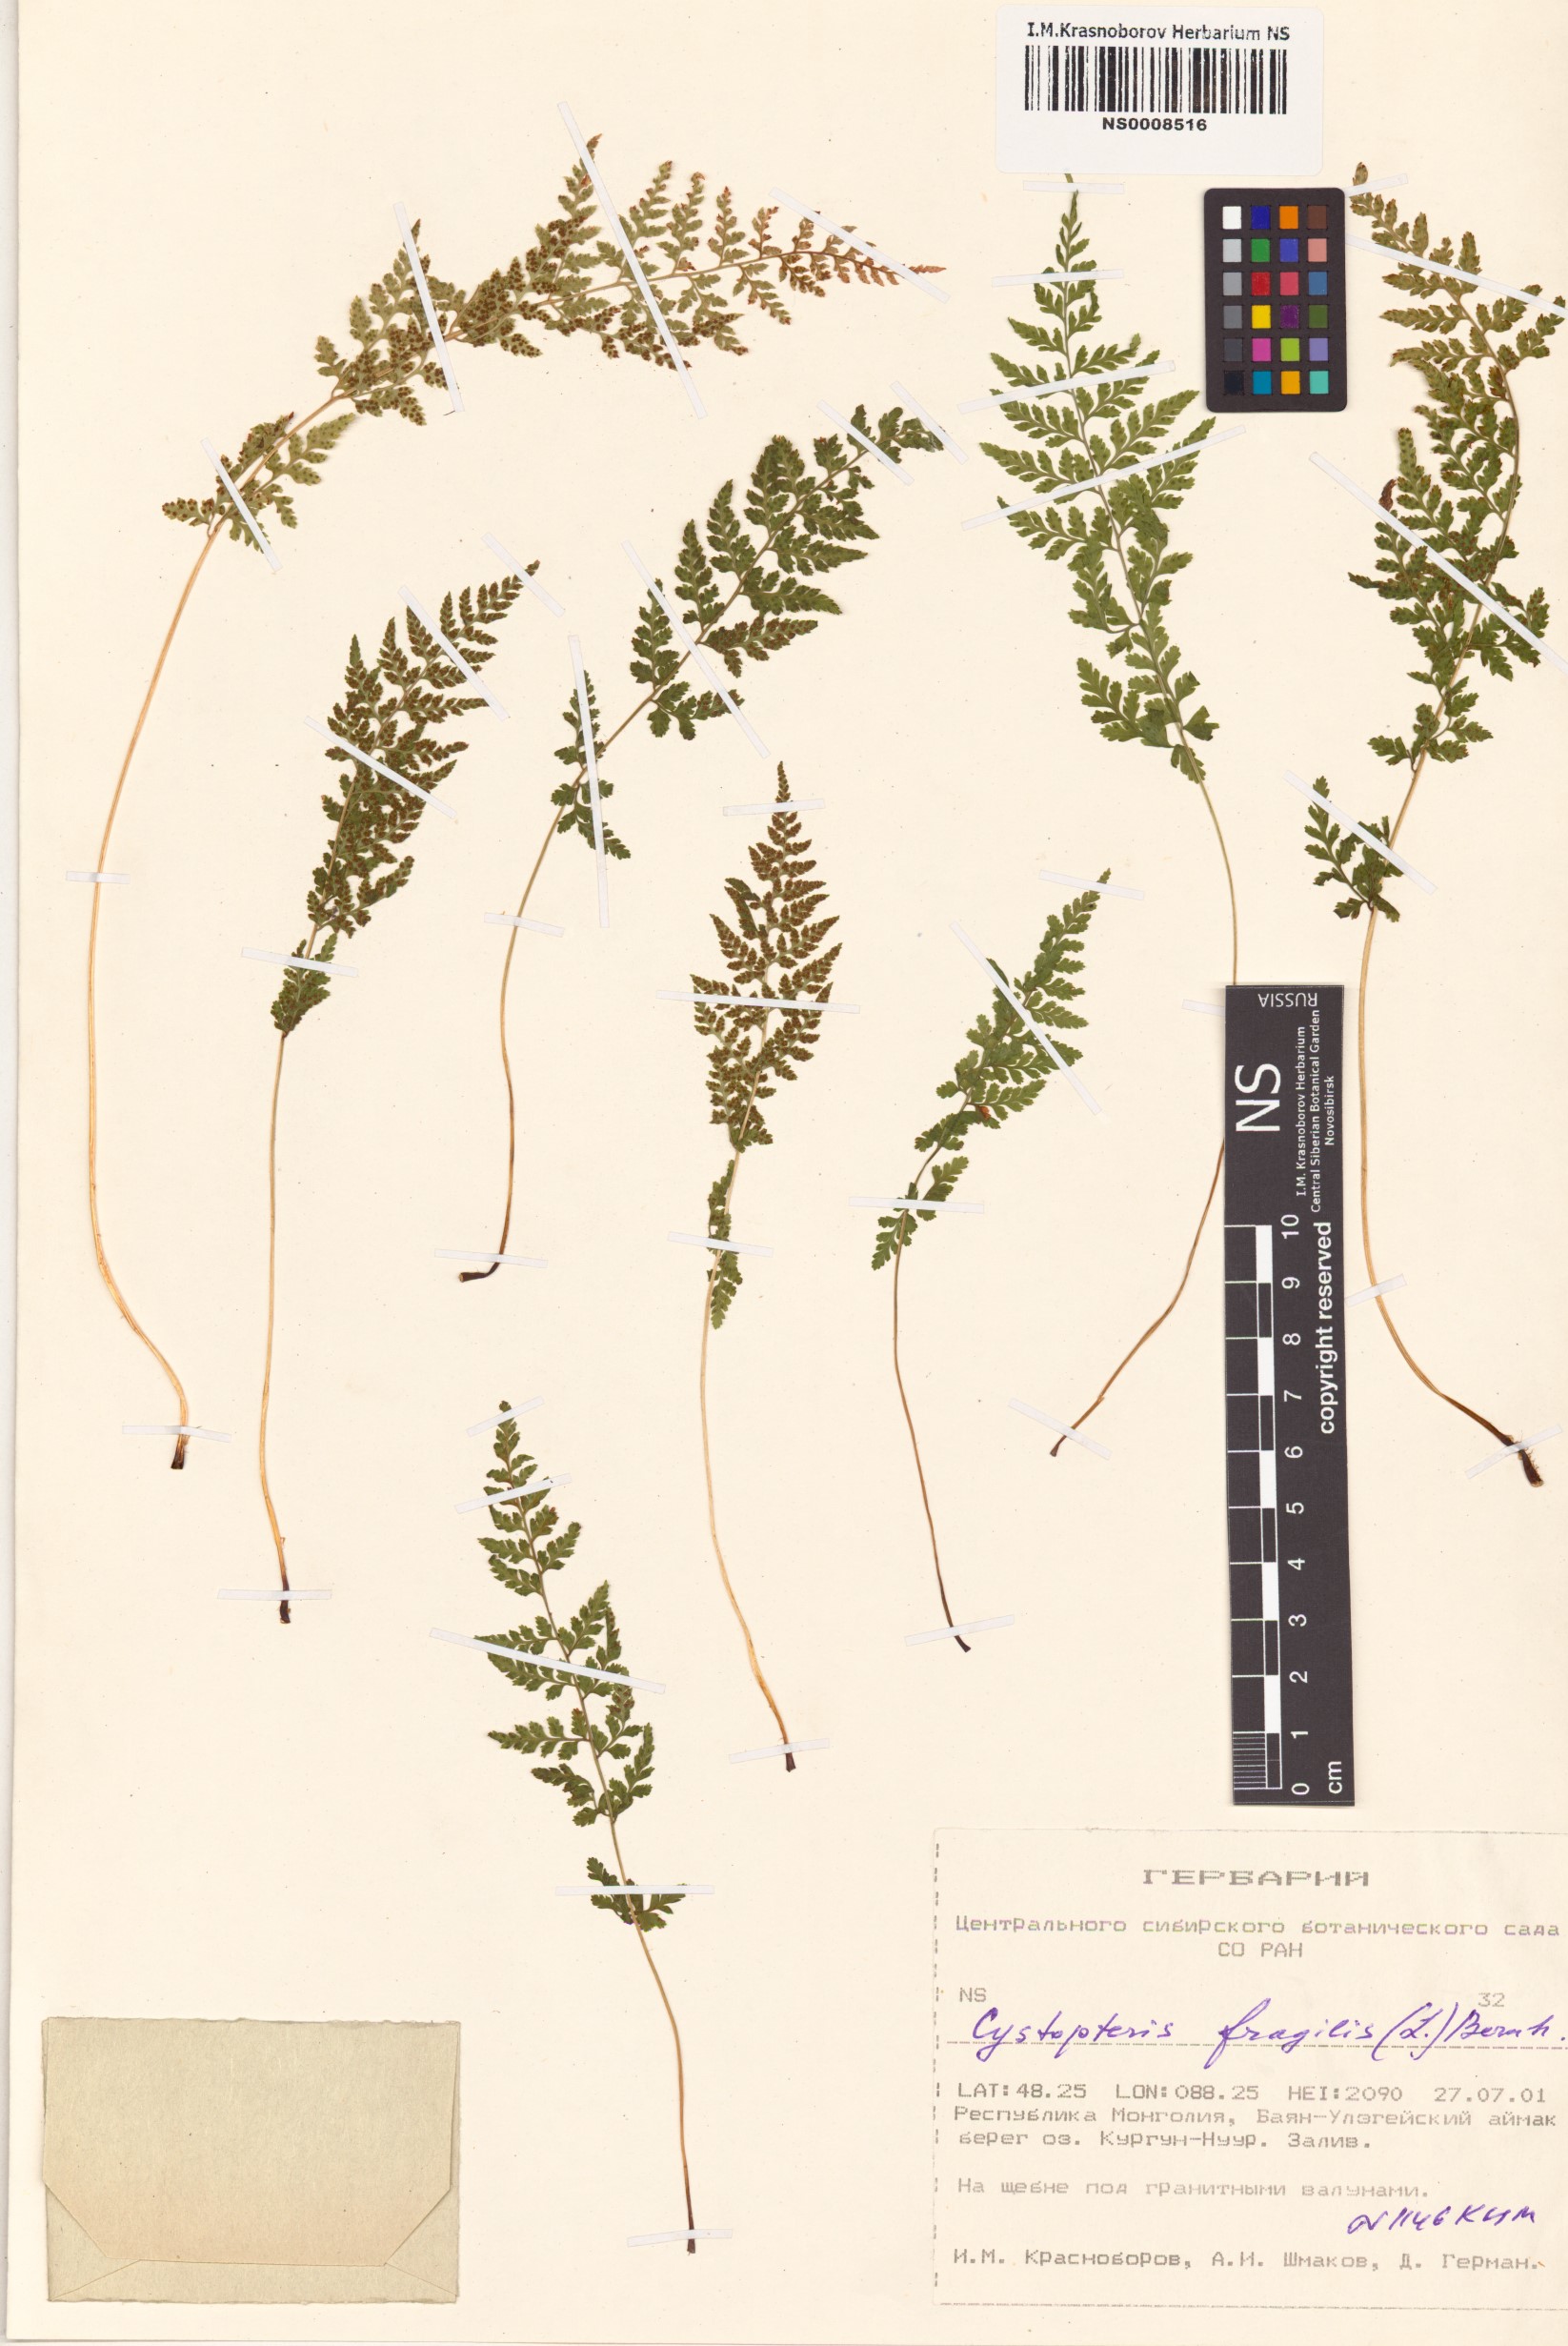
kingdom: Plantae
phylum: Tracheophyta
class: Polypodiopsida
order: Polypodiales
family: Cystopteridaceae
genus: Cystopteris
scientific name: Cystopteris fragilis
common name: Brittle bladder fern
